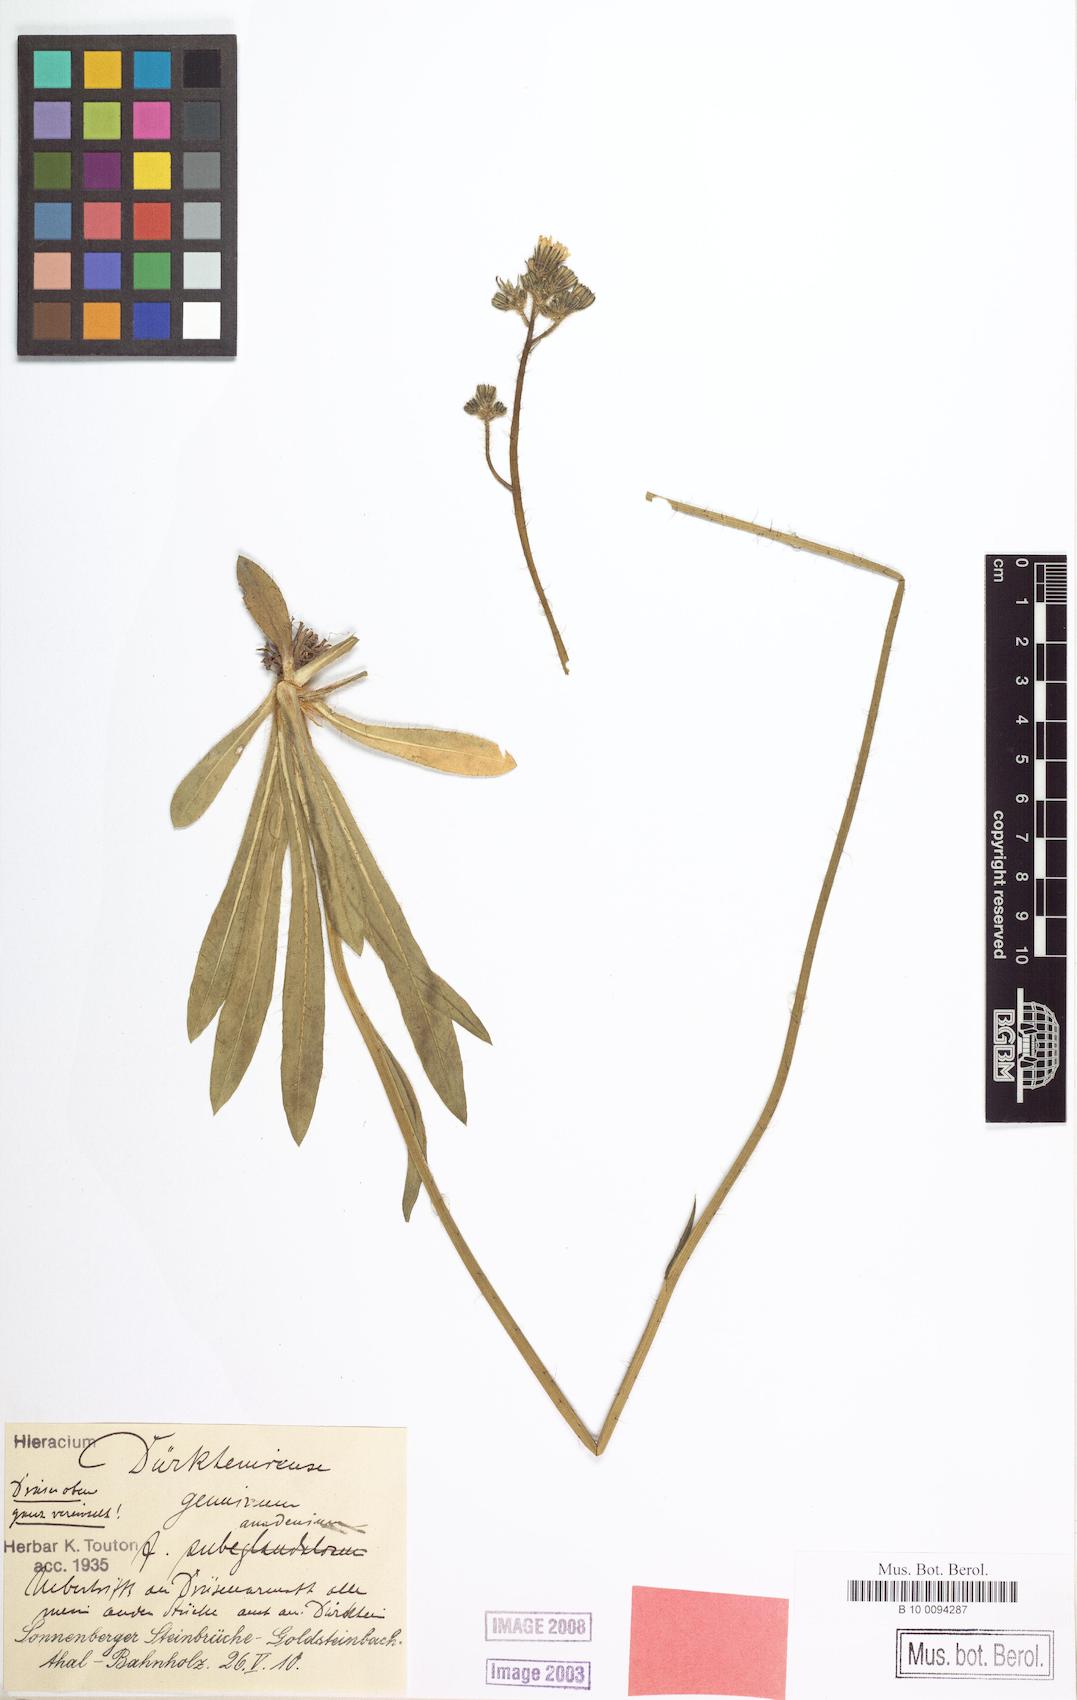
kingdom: Plantae
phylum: Tracheophyta
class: Magnoliopsida
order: Asterales
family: Asteraceae
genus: Pilosella
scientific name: Pilosella duerkhemiensis
